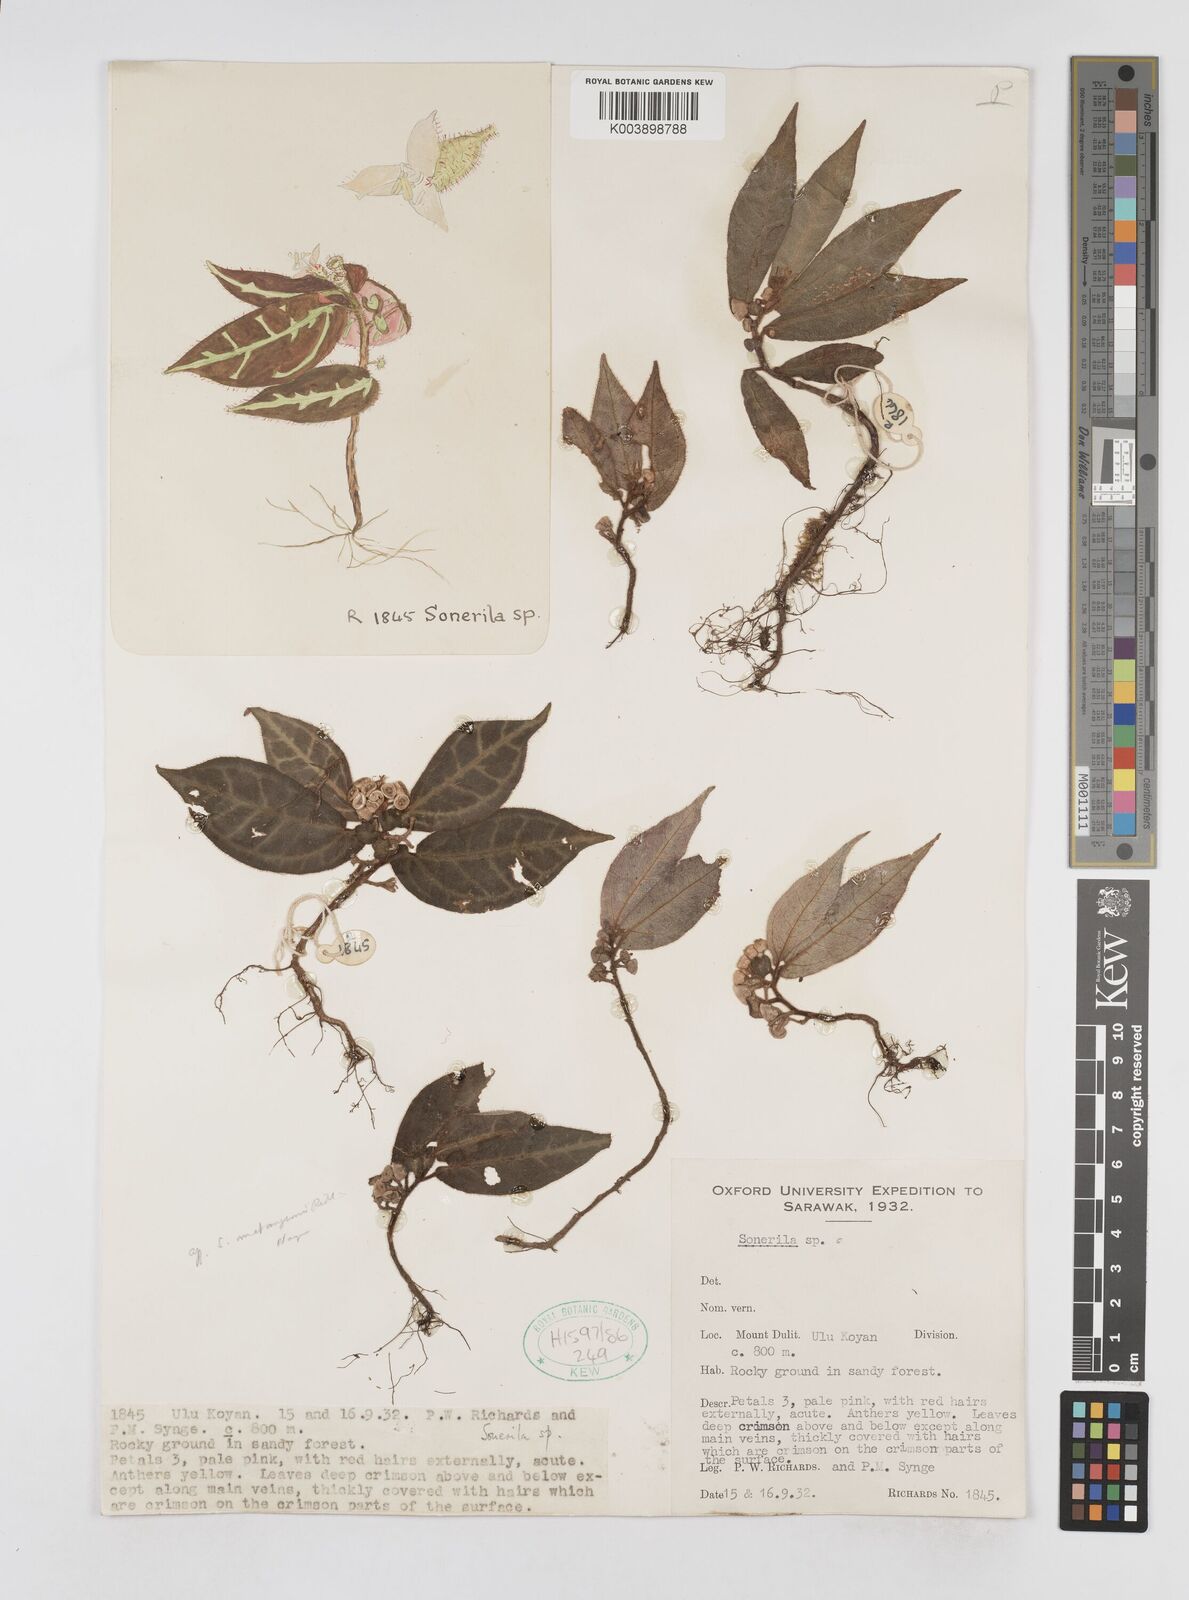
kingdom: Plantae
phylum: Tracheophyta
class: Magnoliopsida
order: Myrtales
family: Melastomataceae
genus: Sonerila
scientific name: Sonerila
